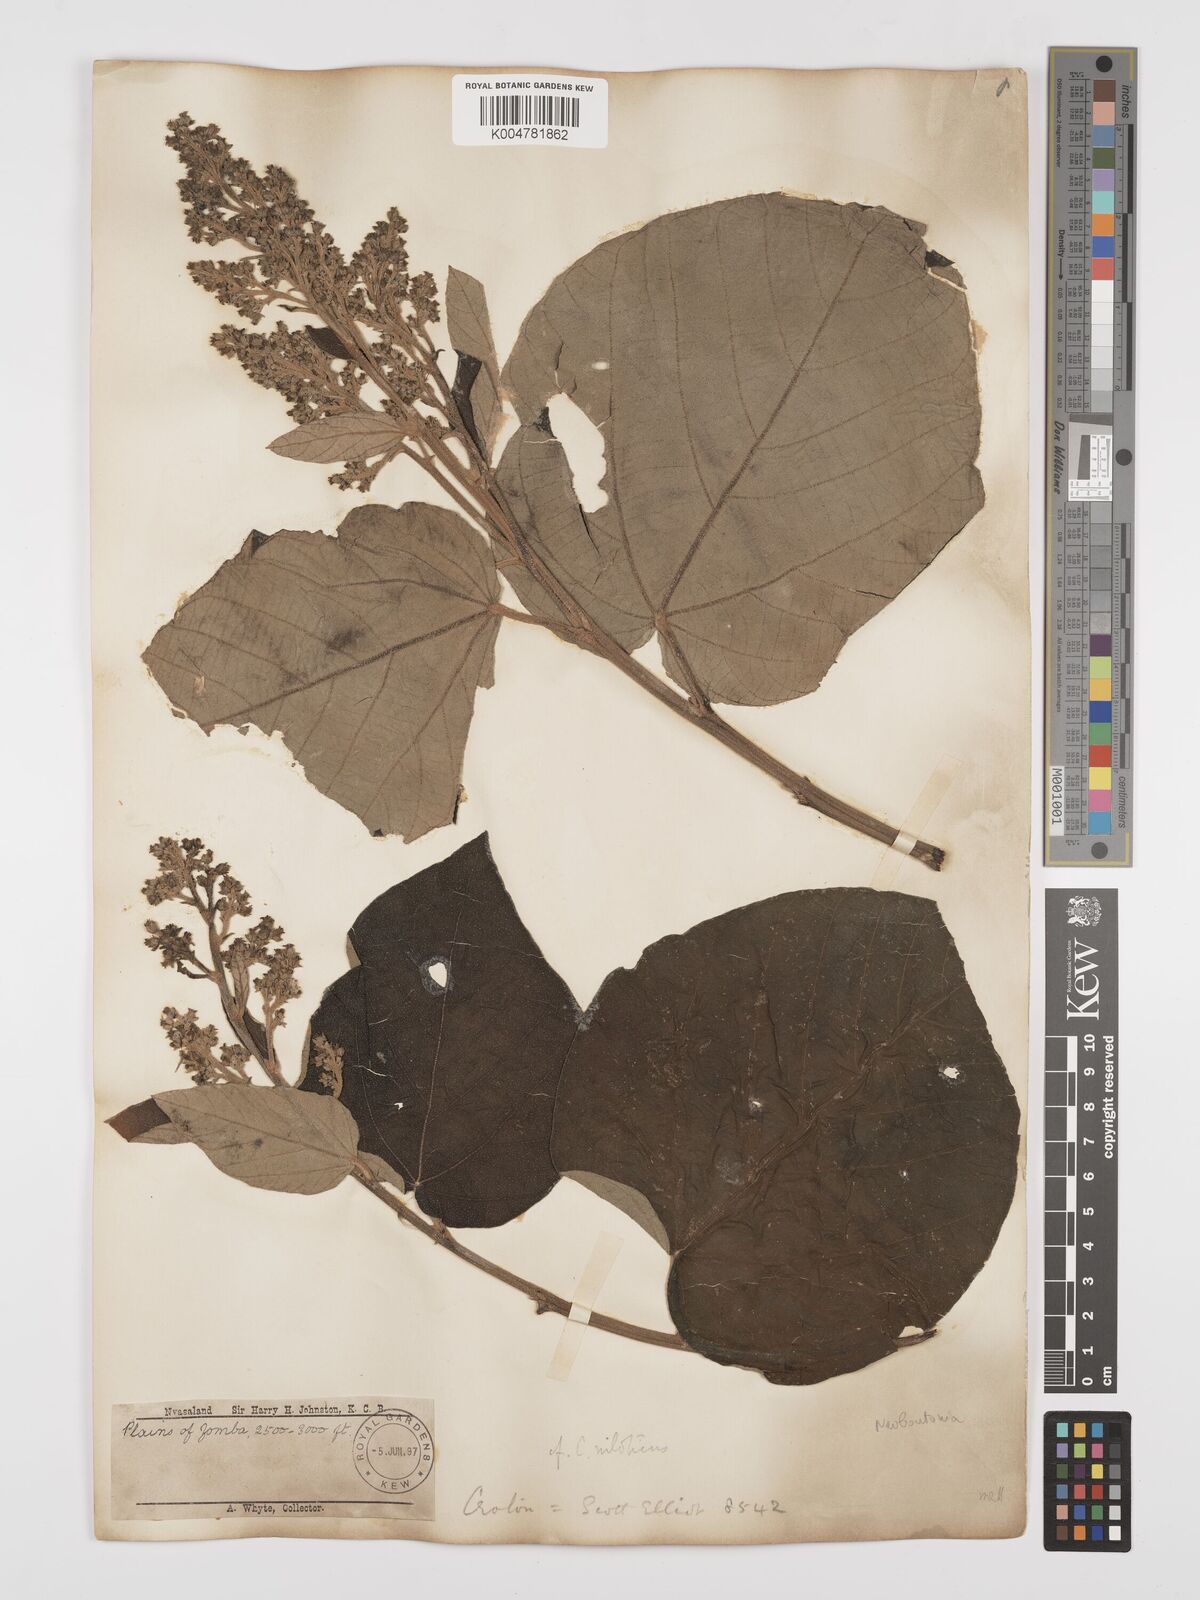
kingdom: Plantae
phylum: Tracheophyta
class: Magnoliopsida
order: Malpighiales
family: Euphorbiaceae
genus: Neoboutonia
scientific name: Neoboutonia melleri
